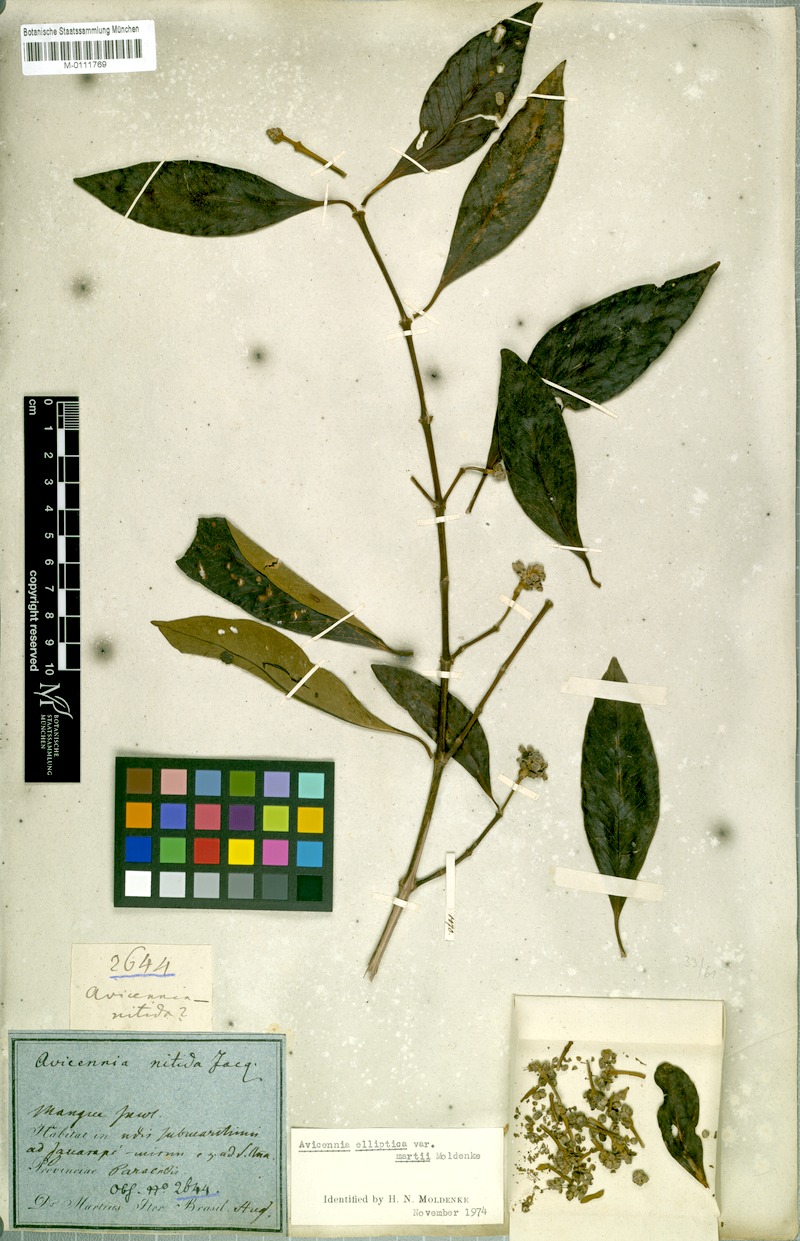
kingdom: Plantae
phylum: Tracheophyta
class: Magnoliopsida
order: Lamiales
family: Acanthaceae
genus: Avicennia
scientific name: Avicennia germinans
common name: Black mangrove
